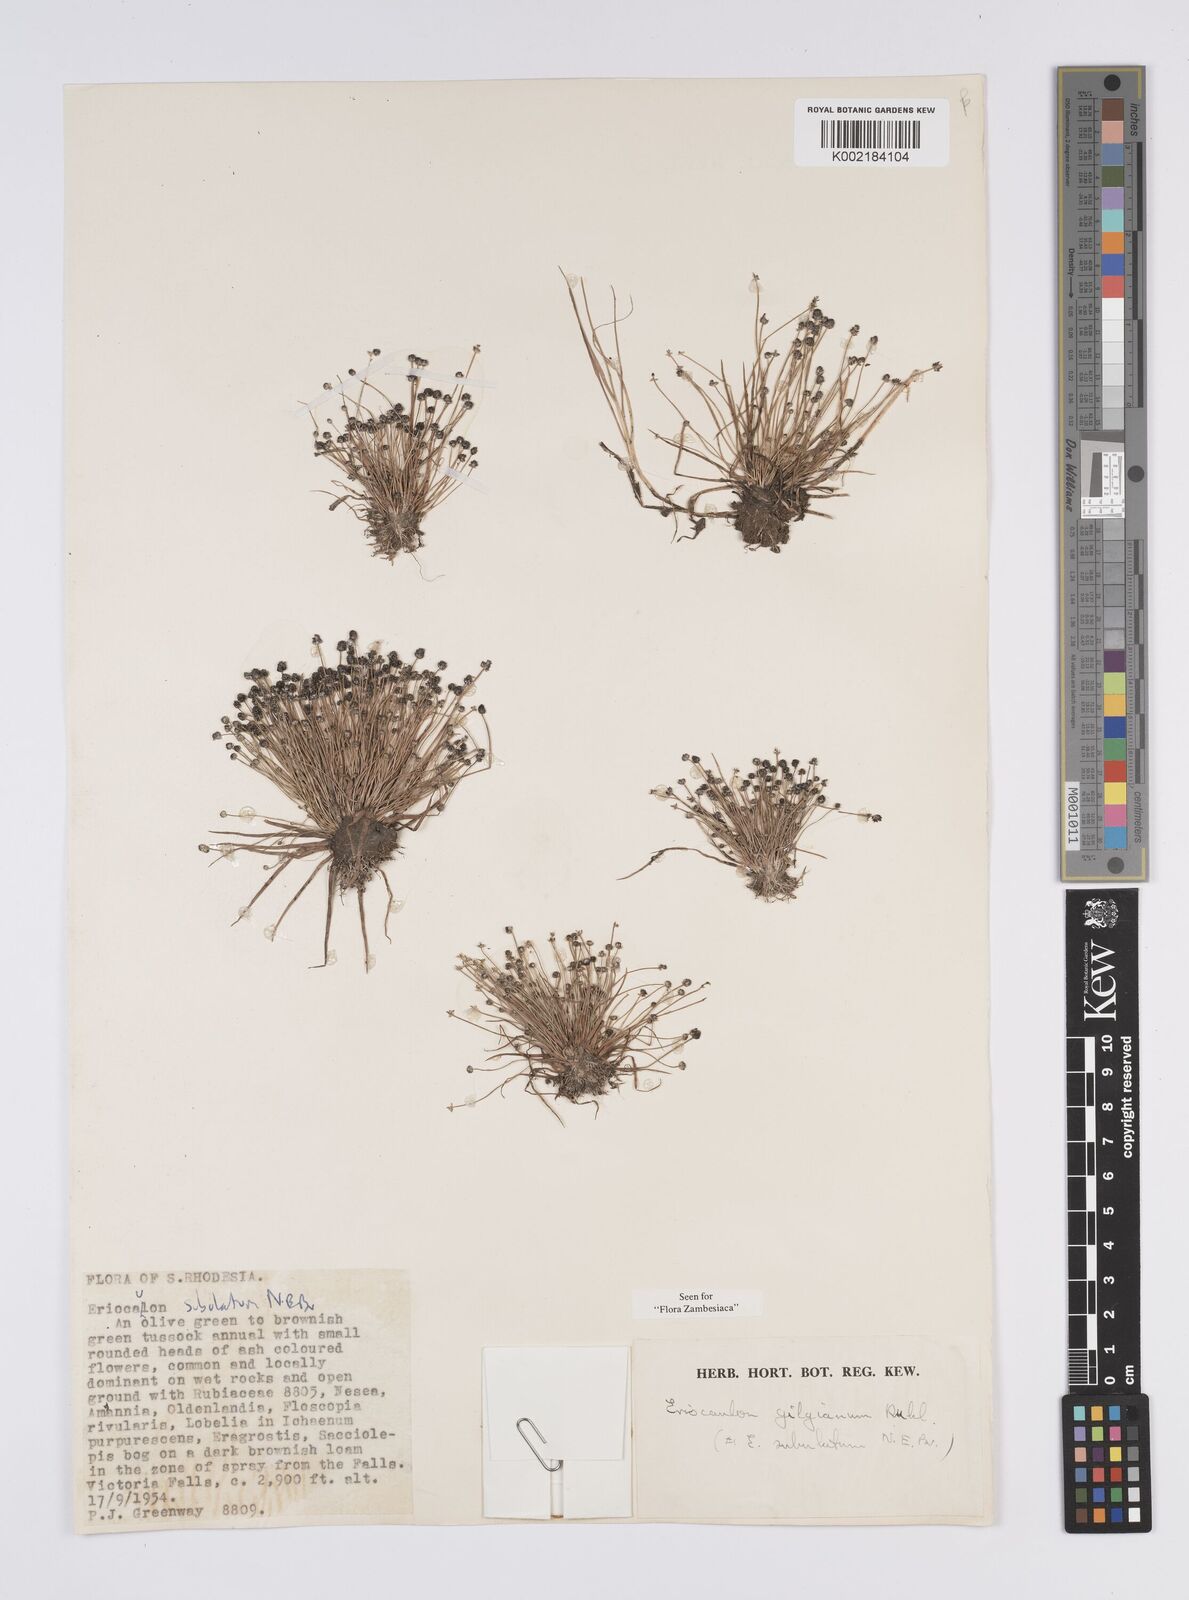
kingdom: Plantae
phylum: Tracheophyta
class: Liliopsida
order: Poales
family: Eriocaulaceae
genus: Eriocaulon
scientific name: Eriocaulon abyssinicum
